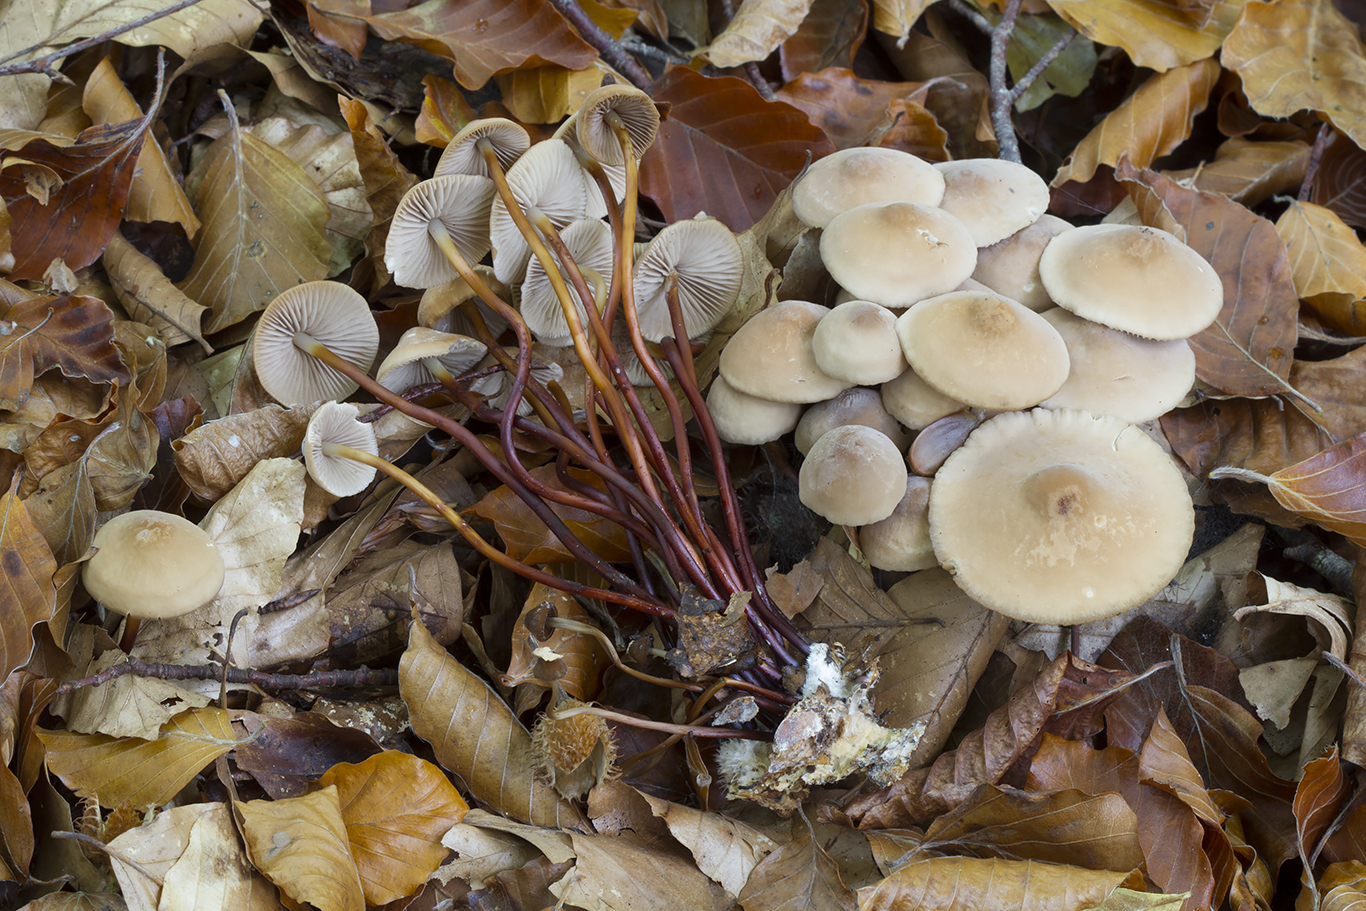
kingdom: Fungi
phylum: Basidiomycota
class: Agaricomycetes
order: Agaricales
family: Marasmiaceae
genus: Marasmius
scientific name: Marasmius cohaerens
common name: hornstokket bruskhat
